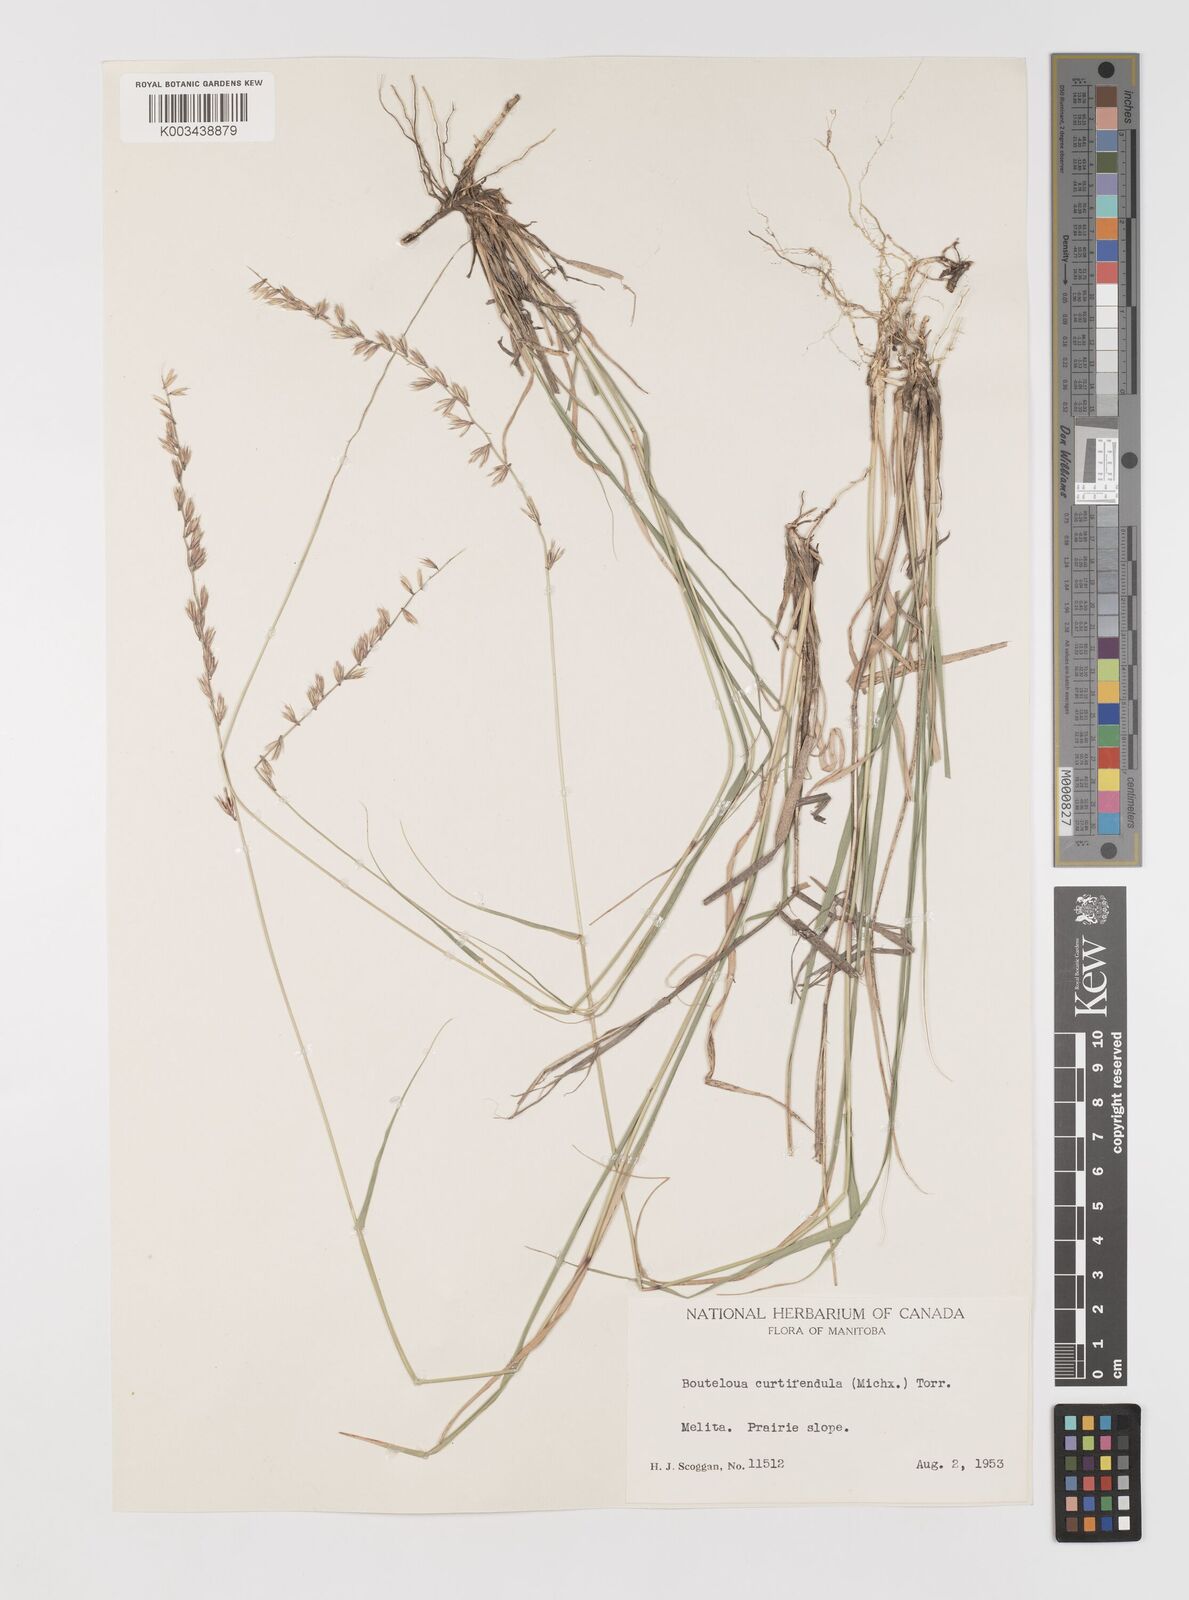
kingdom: Plantae
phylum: Tracheophyta
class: Liliopsida
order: Poales
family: Poaceae
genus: Bouteloua
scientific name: Bouteloua curtipendula
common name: Side-oats grama
